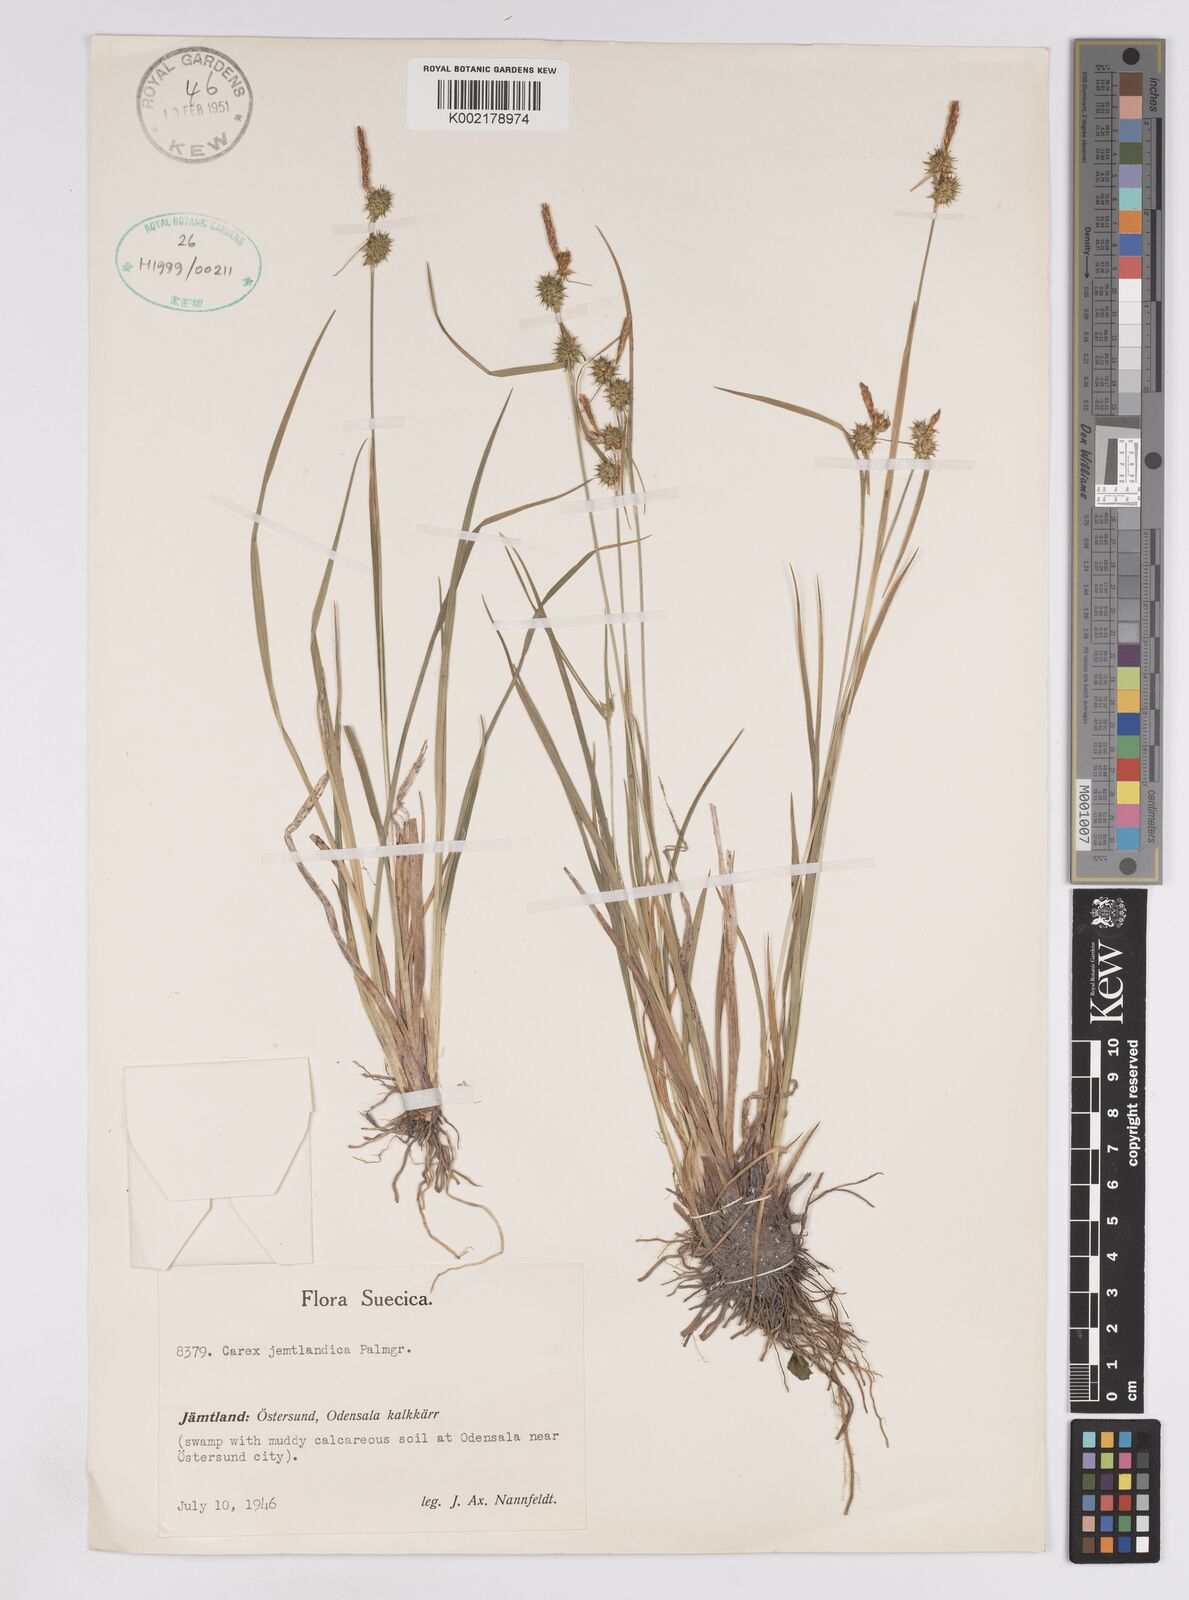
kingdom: Plantae
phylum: Tracheophyta
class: Liliopsida
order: Poales
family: Cyperaceae
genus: Carex
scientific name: Carex lepidocarpa
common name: Long-stalked yellow-sedge
